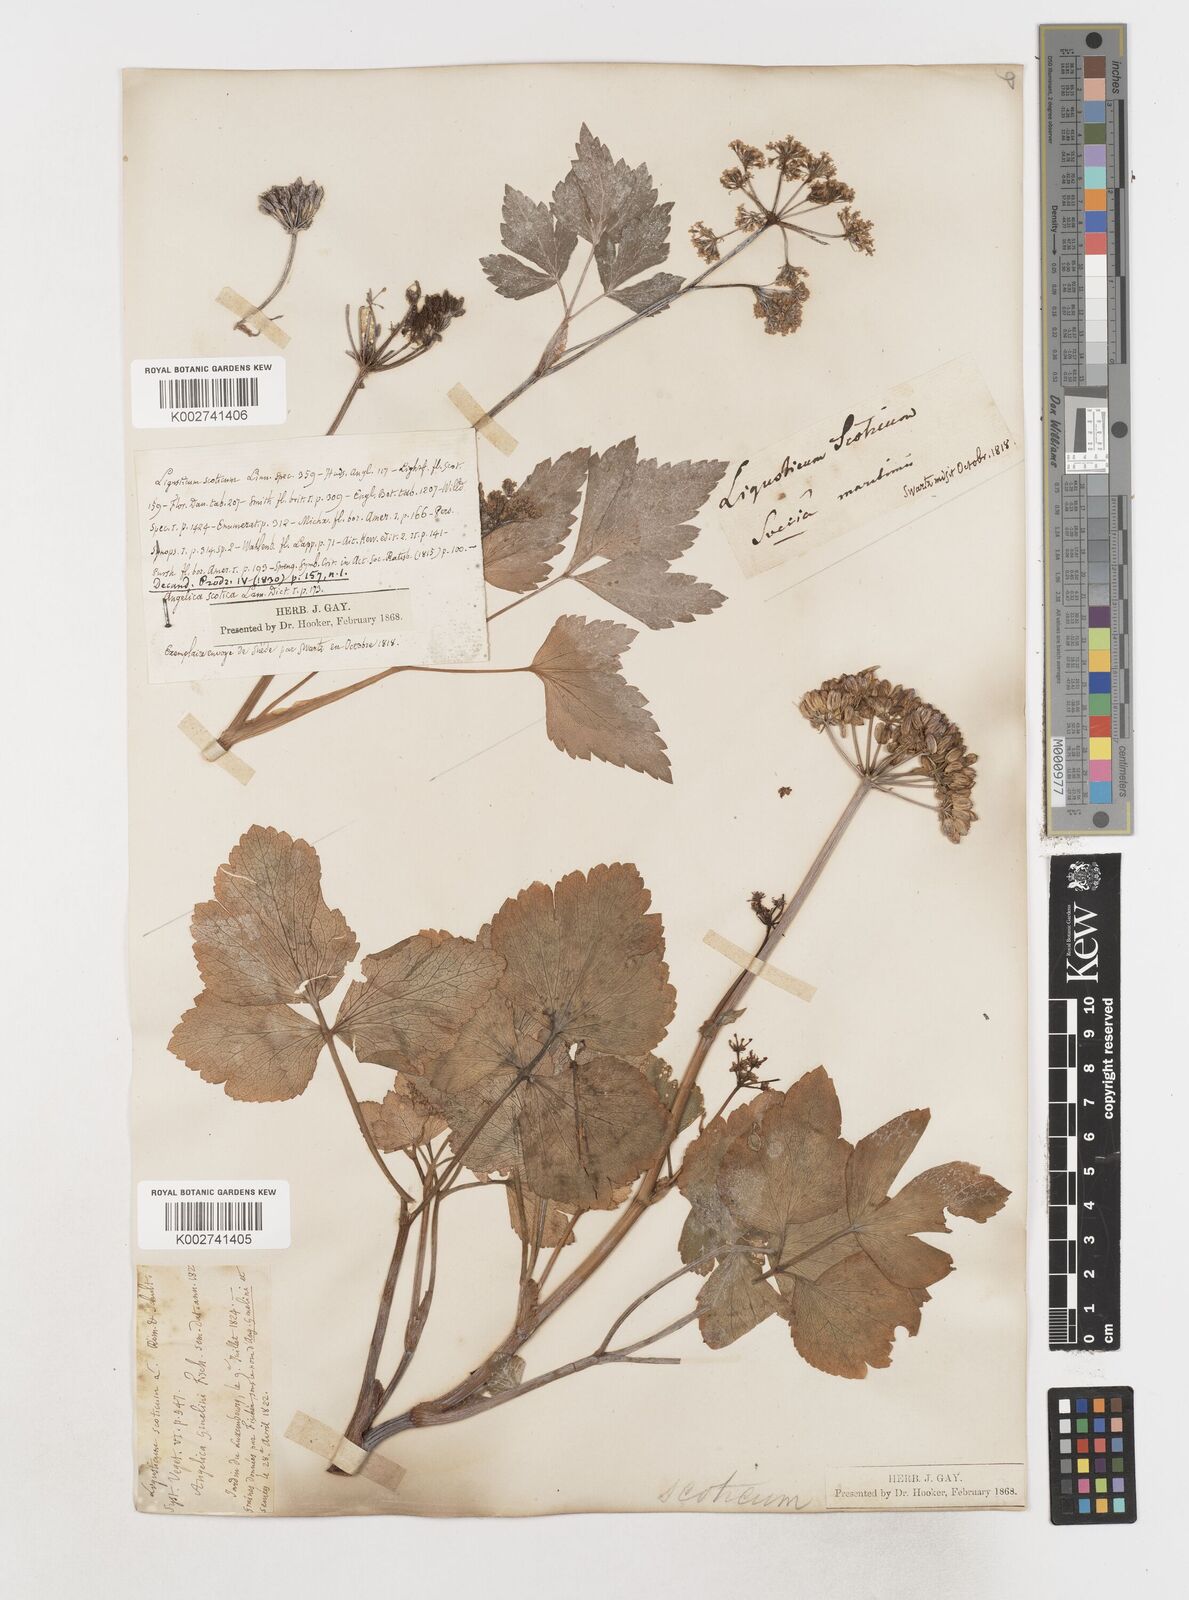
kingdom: Plantae
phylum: Tracheophyta
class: Magnoliopsida
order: Apiales
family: Apiaceae
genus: Ligusticum
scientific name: Ligusticum scothicum
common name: Beach lovage
